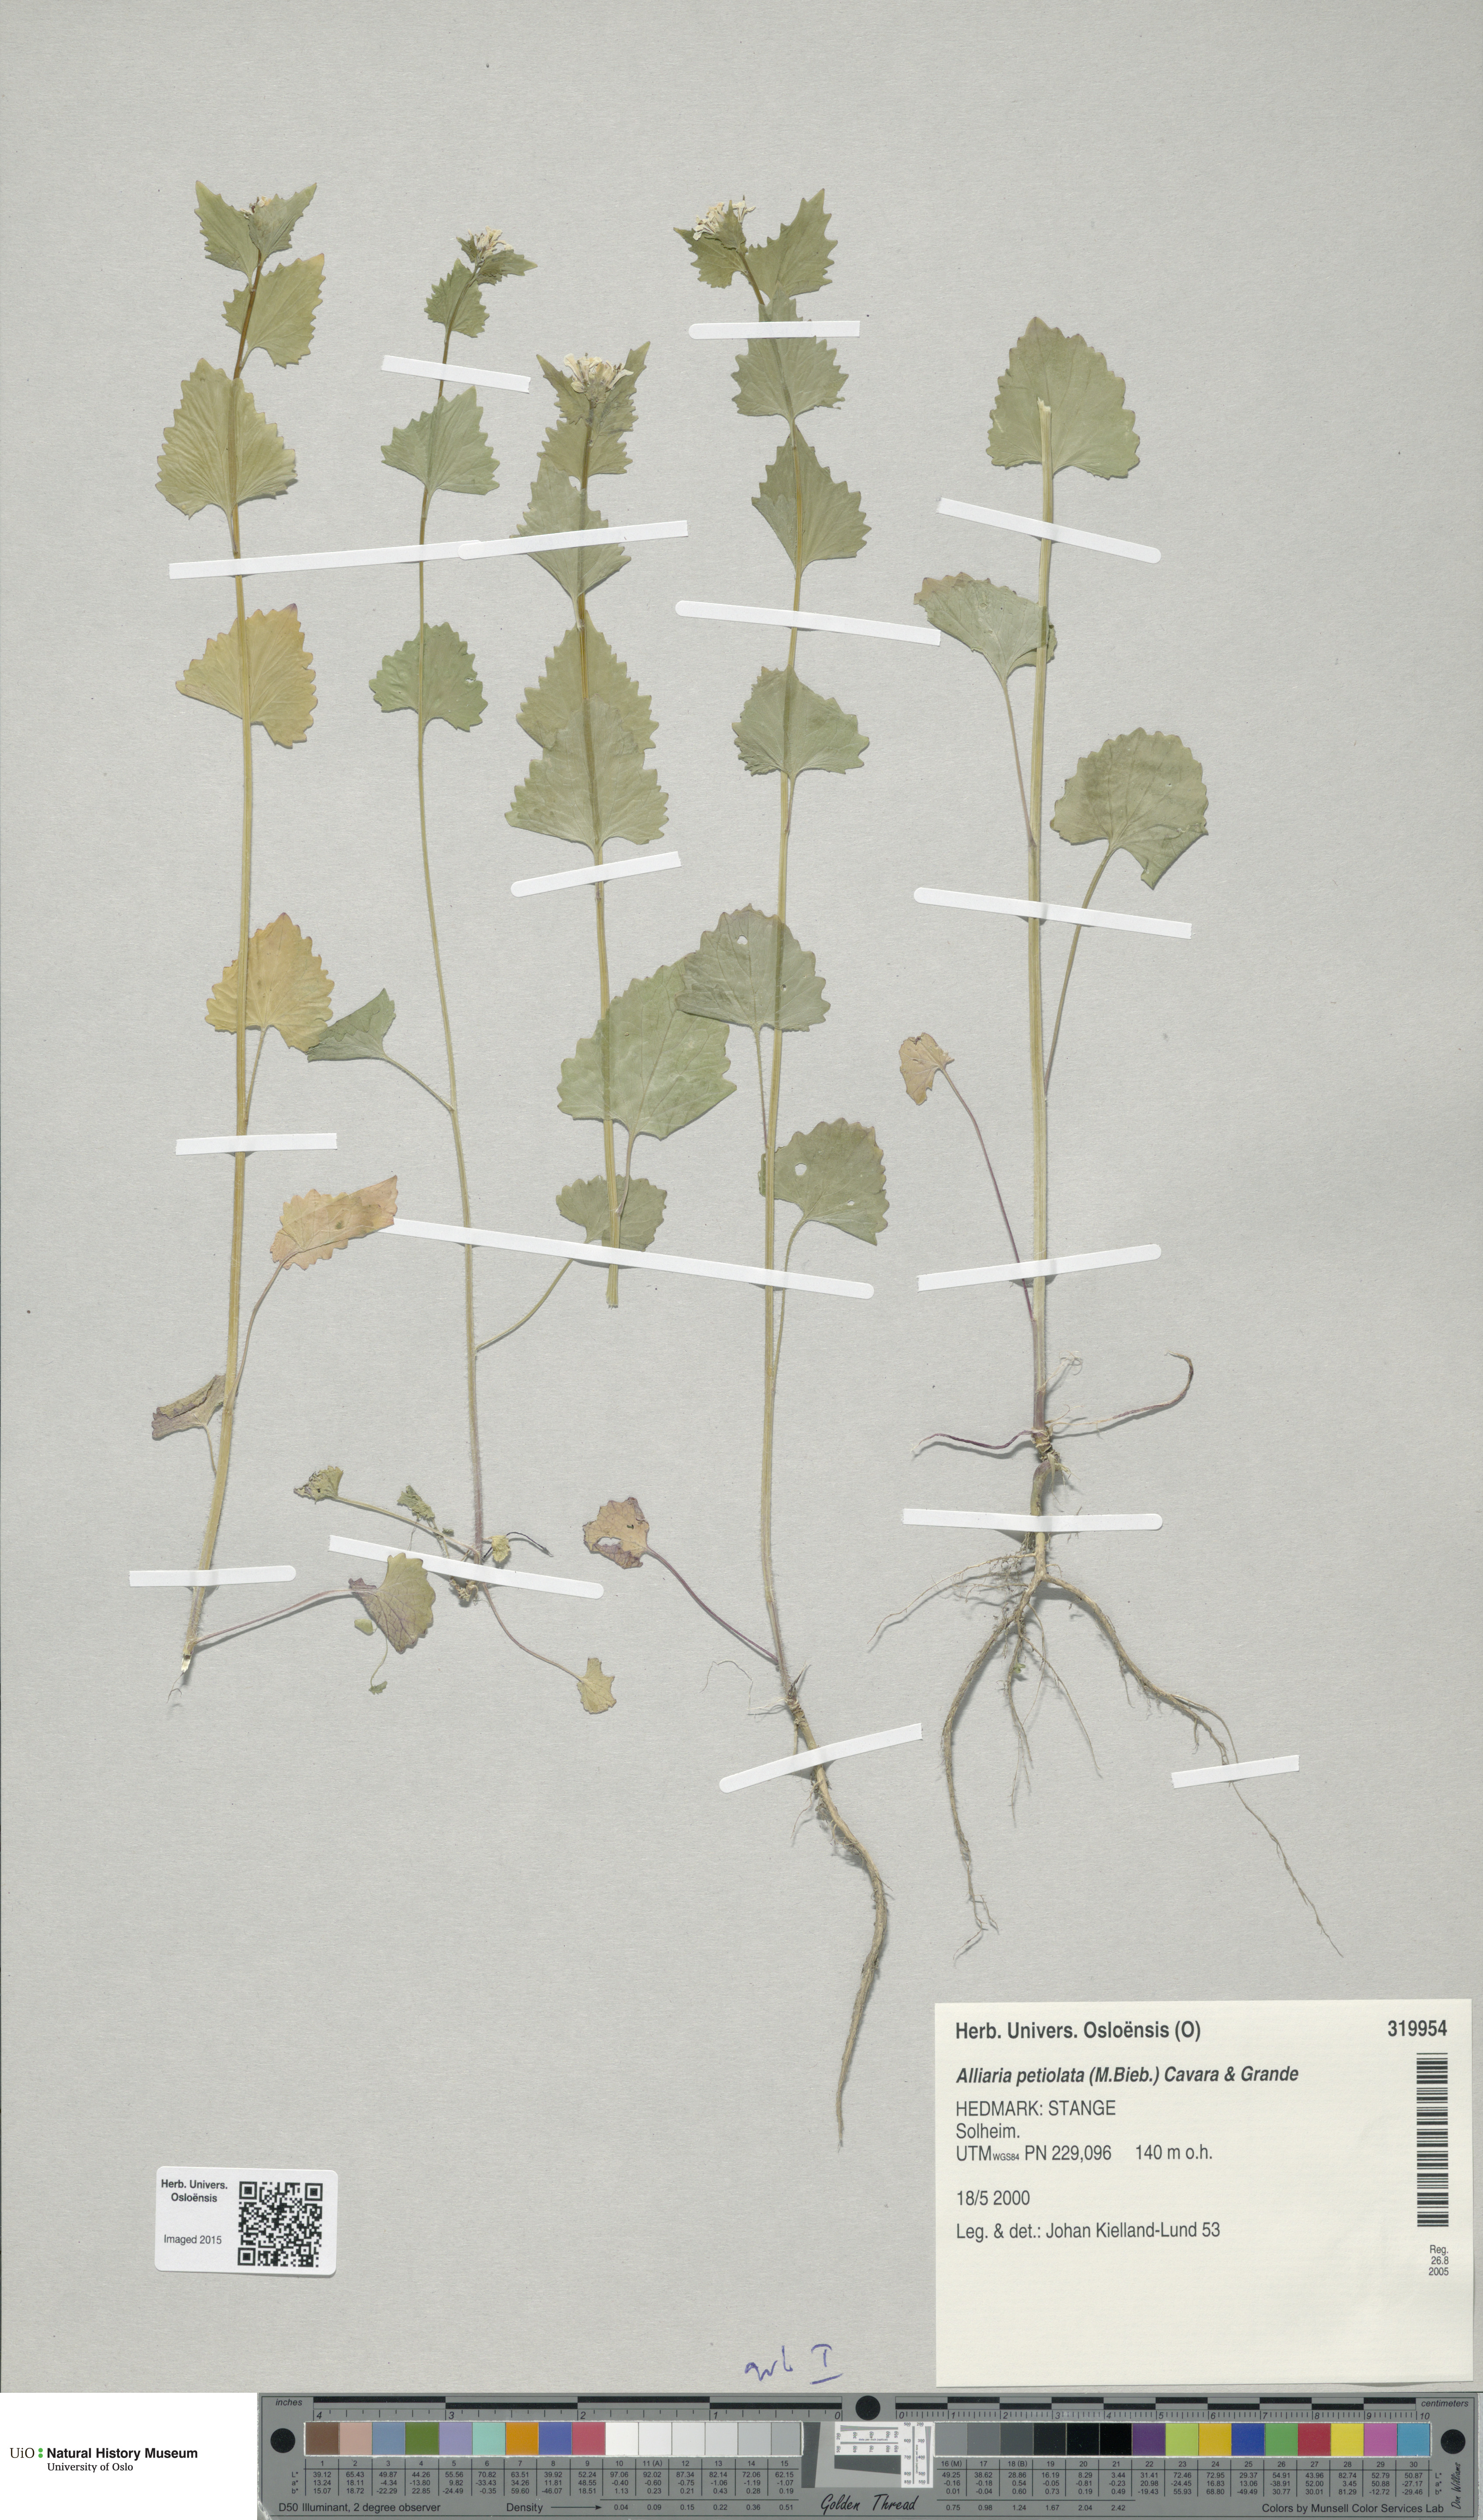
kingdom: Plantae
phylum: Tracheophyta
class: Magnoliopsida
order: Brassicales
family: Brassicaceae
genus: Alliaria
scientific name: Alliaria petiolata
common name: Garlic mustard
